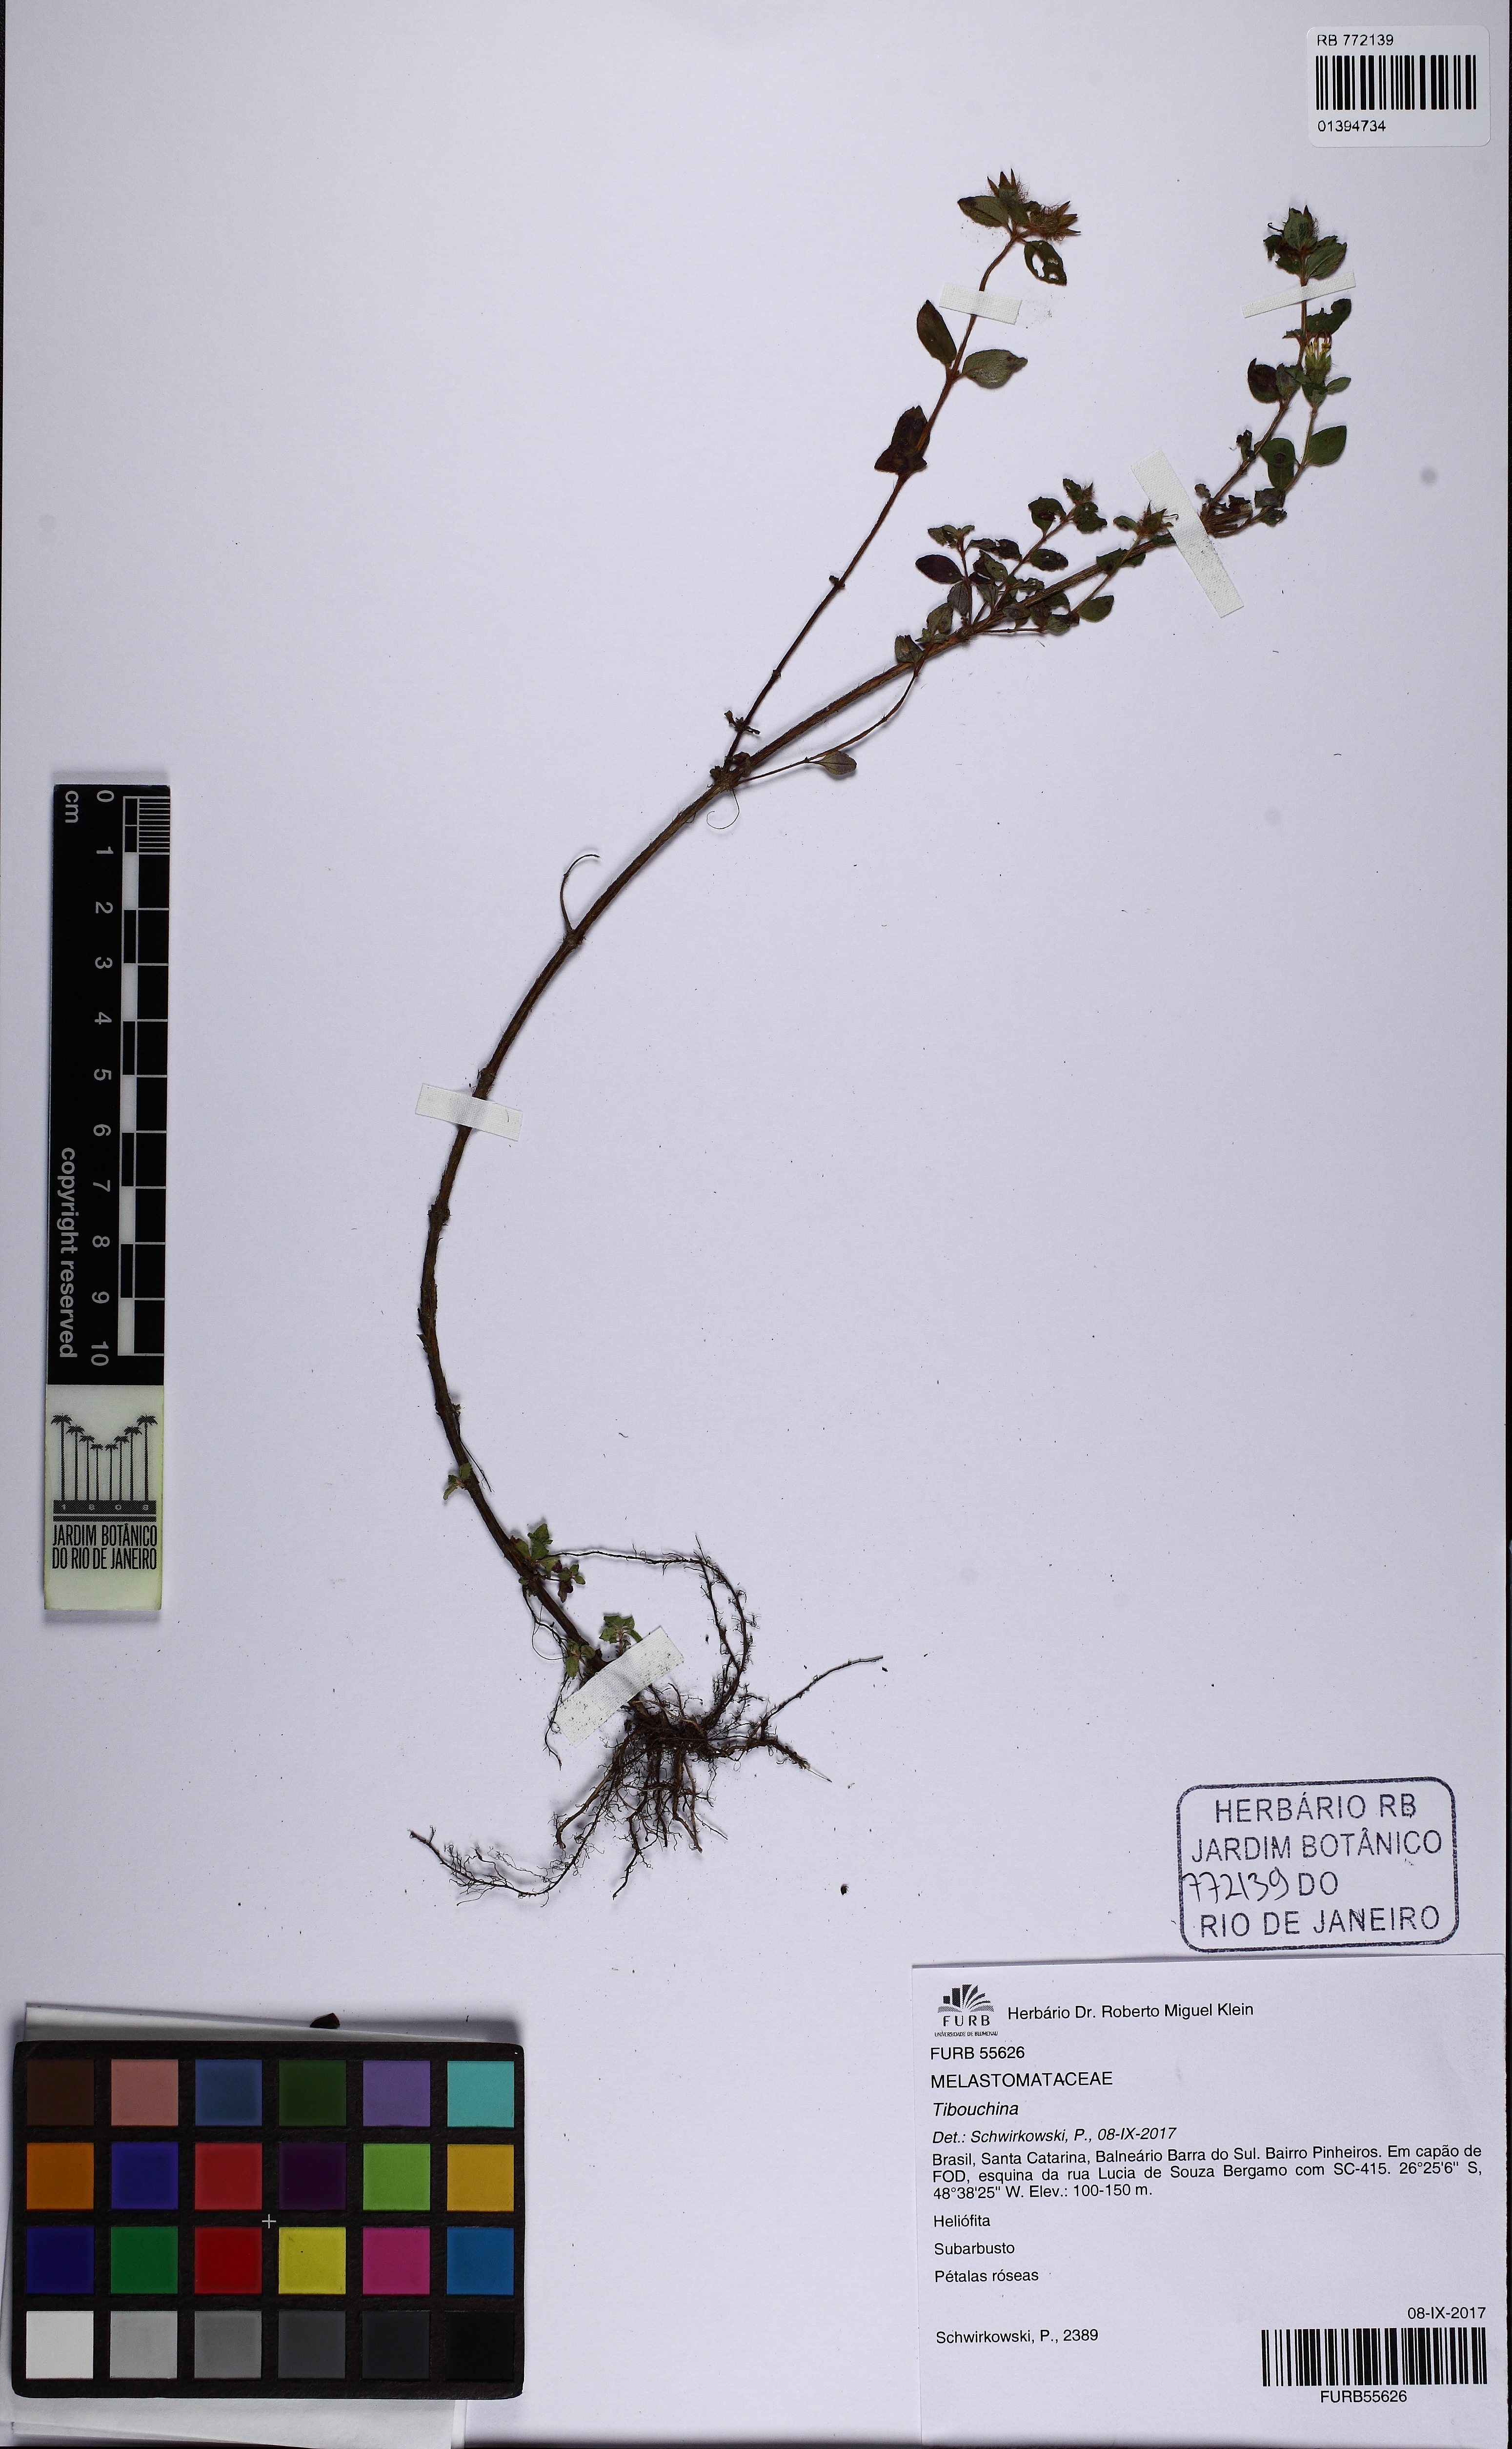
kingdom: Plantae
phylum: Tracheophyta
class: Magnoliopsida
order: Myrtales
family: Melastomataceae
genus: Pterolepis
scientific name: Pterolepis glomerata
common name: False meadowbeauty
